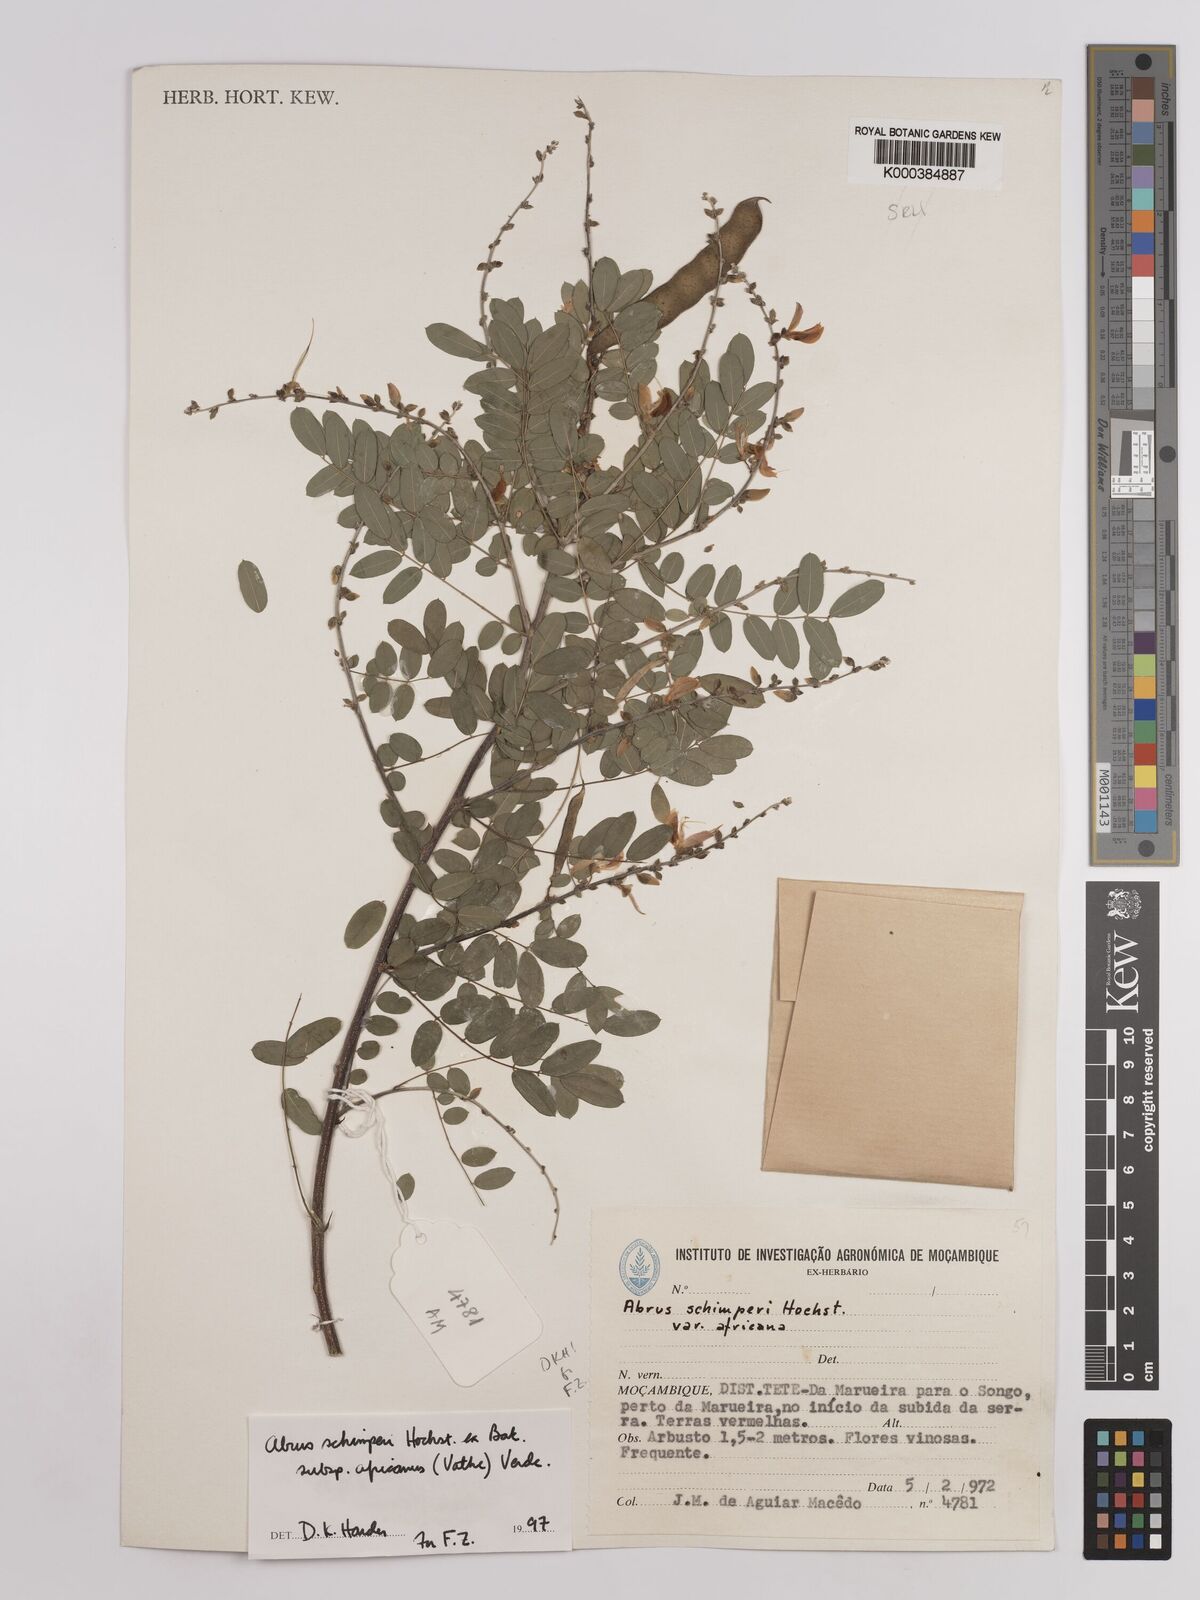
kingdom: Plantae
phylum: Tracheophyta
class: Magnoliopsida
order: Fabales
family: Fabaceae
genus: Abrus
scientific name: Abrus
